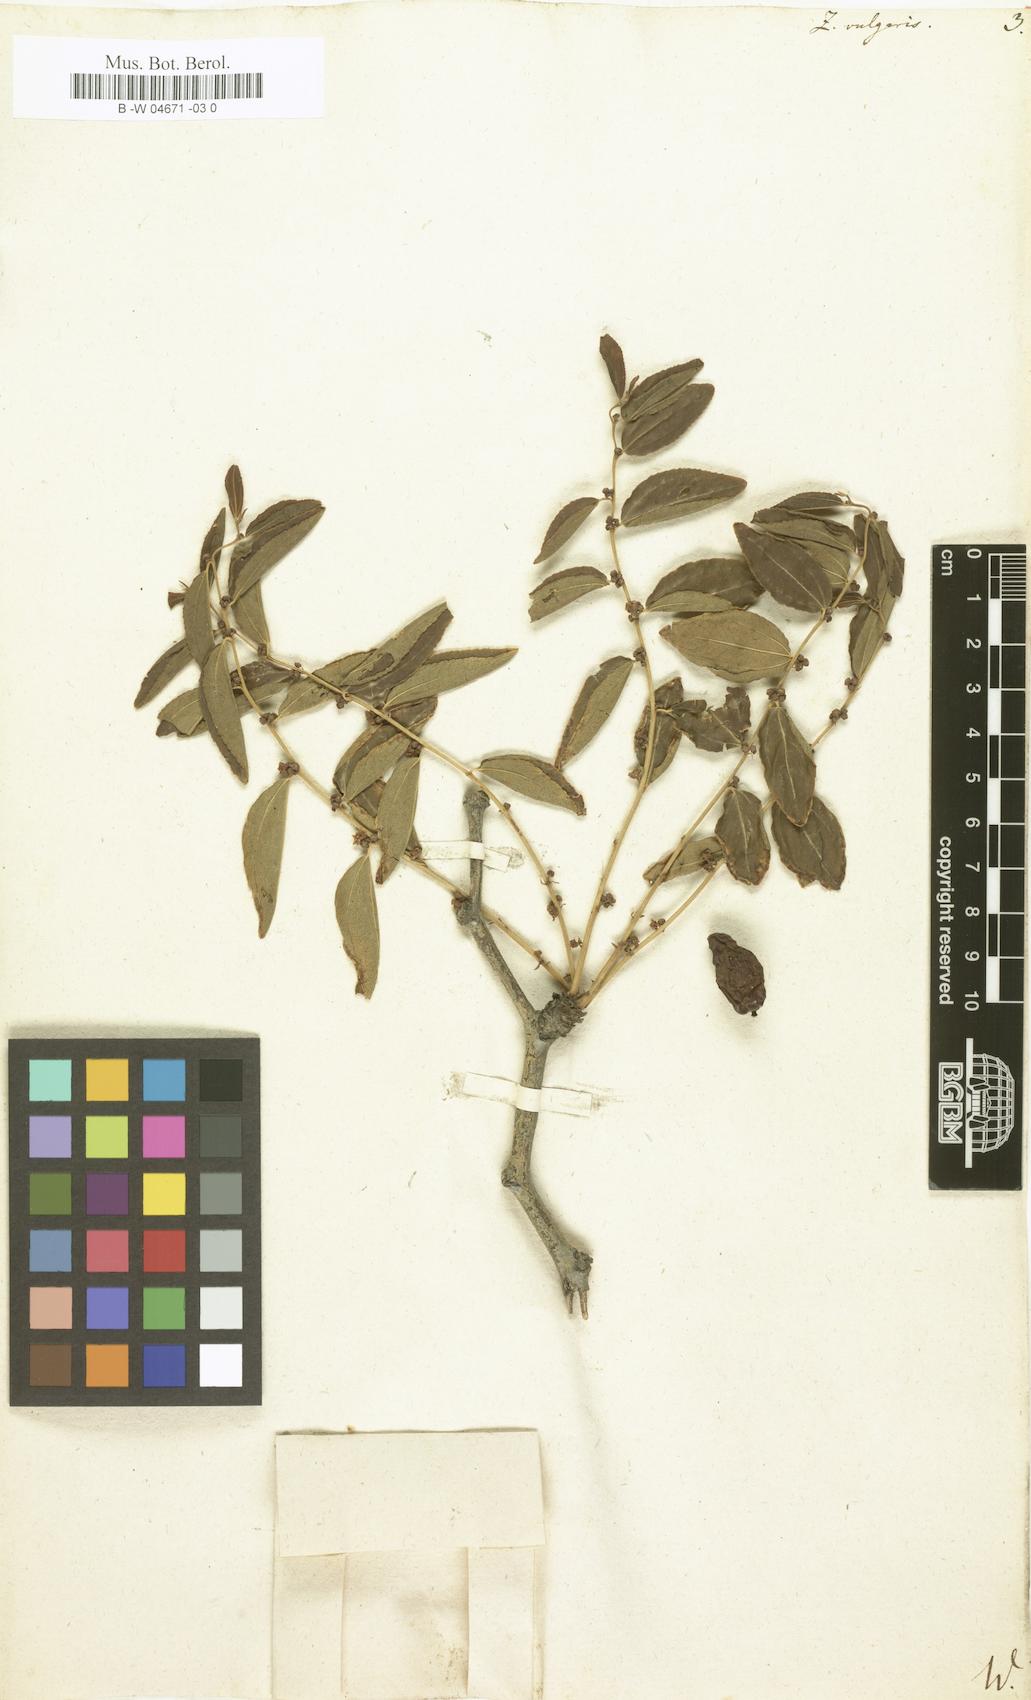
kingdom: Plantae
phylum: Tracheophyta
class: Magnoliopsida
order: Rosales
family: Rhamnaceae
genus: Ziziphus
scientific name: Ziziphus jujuba
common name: Jujube red date
